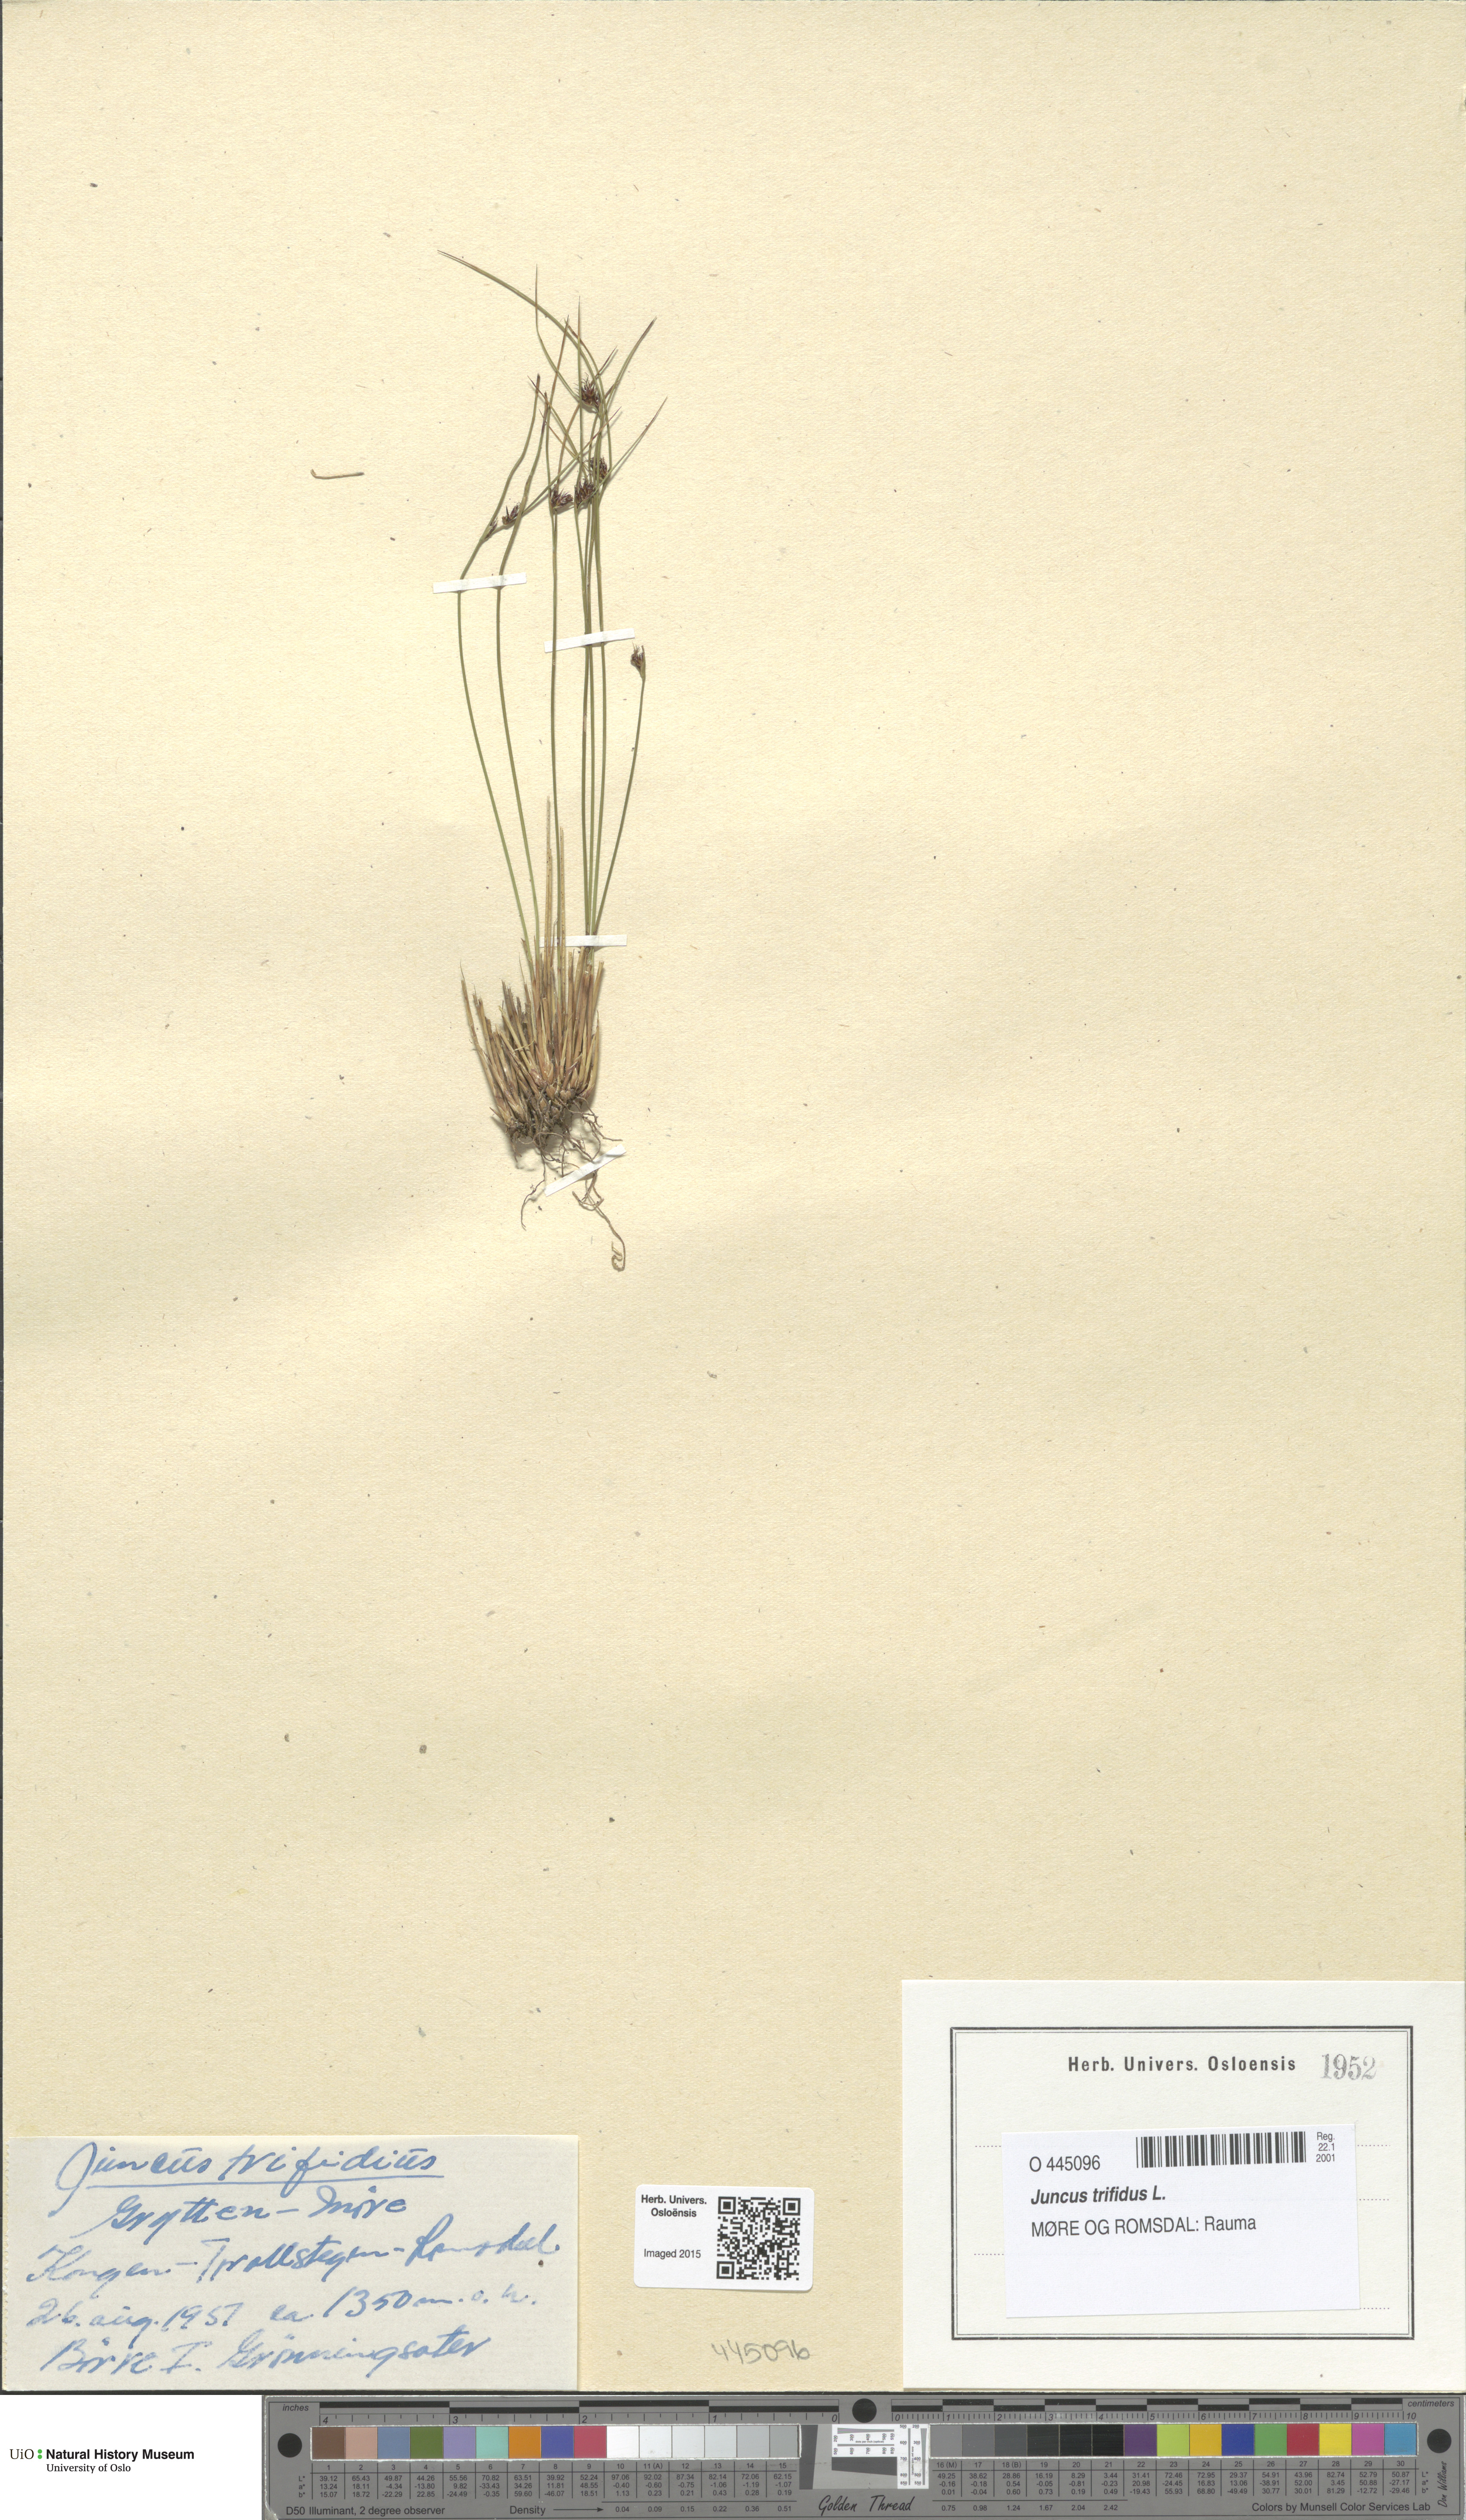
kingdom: Plantae
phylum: Tracheophyta
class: Liliopsida
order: Poales
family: Juncaceae
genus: Oreojuncus
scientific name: Oreojuncus trifidus
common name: Highland rush
